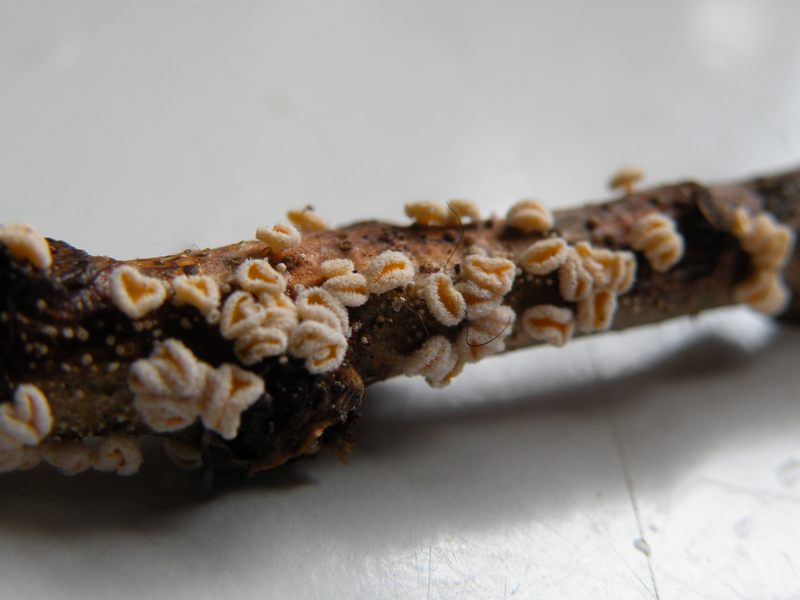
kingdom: Fungi
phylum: Ascomycota
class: Leotiomycetes
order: Helotiales
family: Lachnaceae
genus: Capitotricha
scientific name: Capitotricha bicolor
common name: prægtig frynseskive
